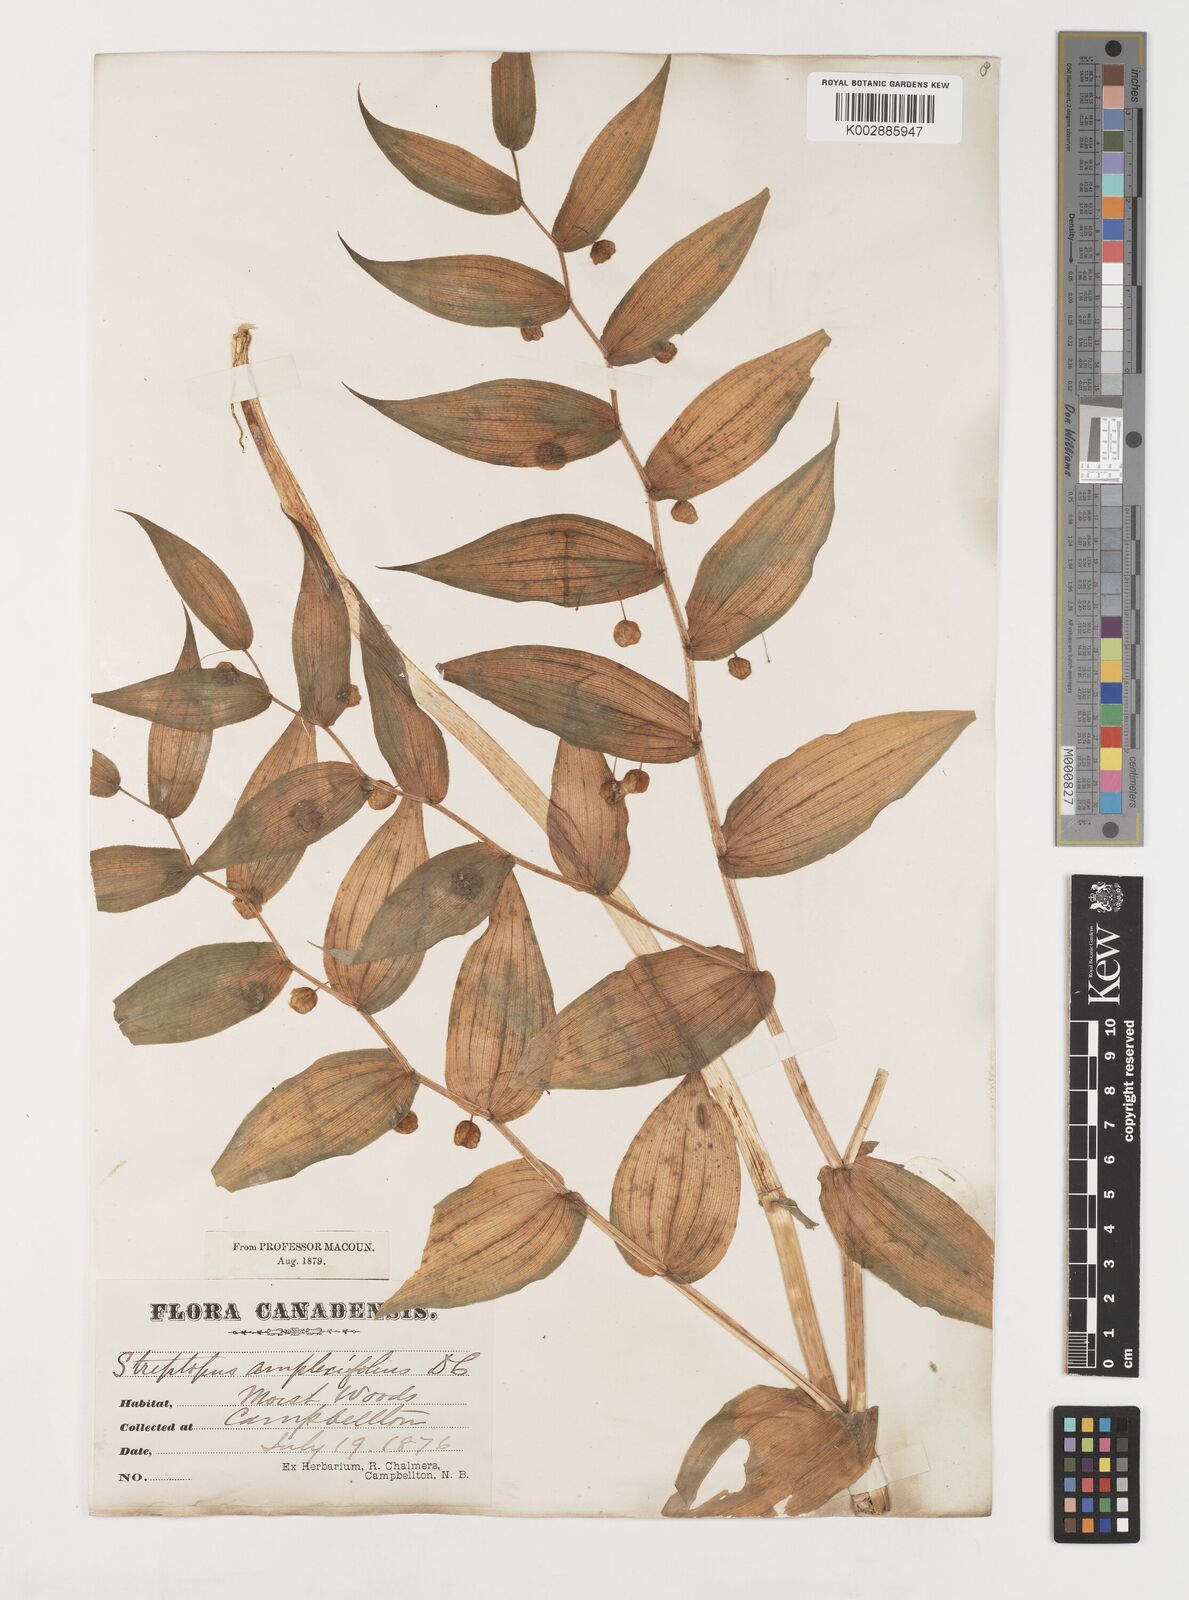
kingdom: Plantae
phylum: Tracheophyta
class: Liliopsida
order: Liliales
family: Liliaceae
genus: Streptopus
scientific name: Streptopus amplexifolius
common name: Clasp twisted stalk
